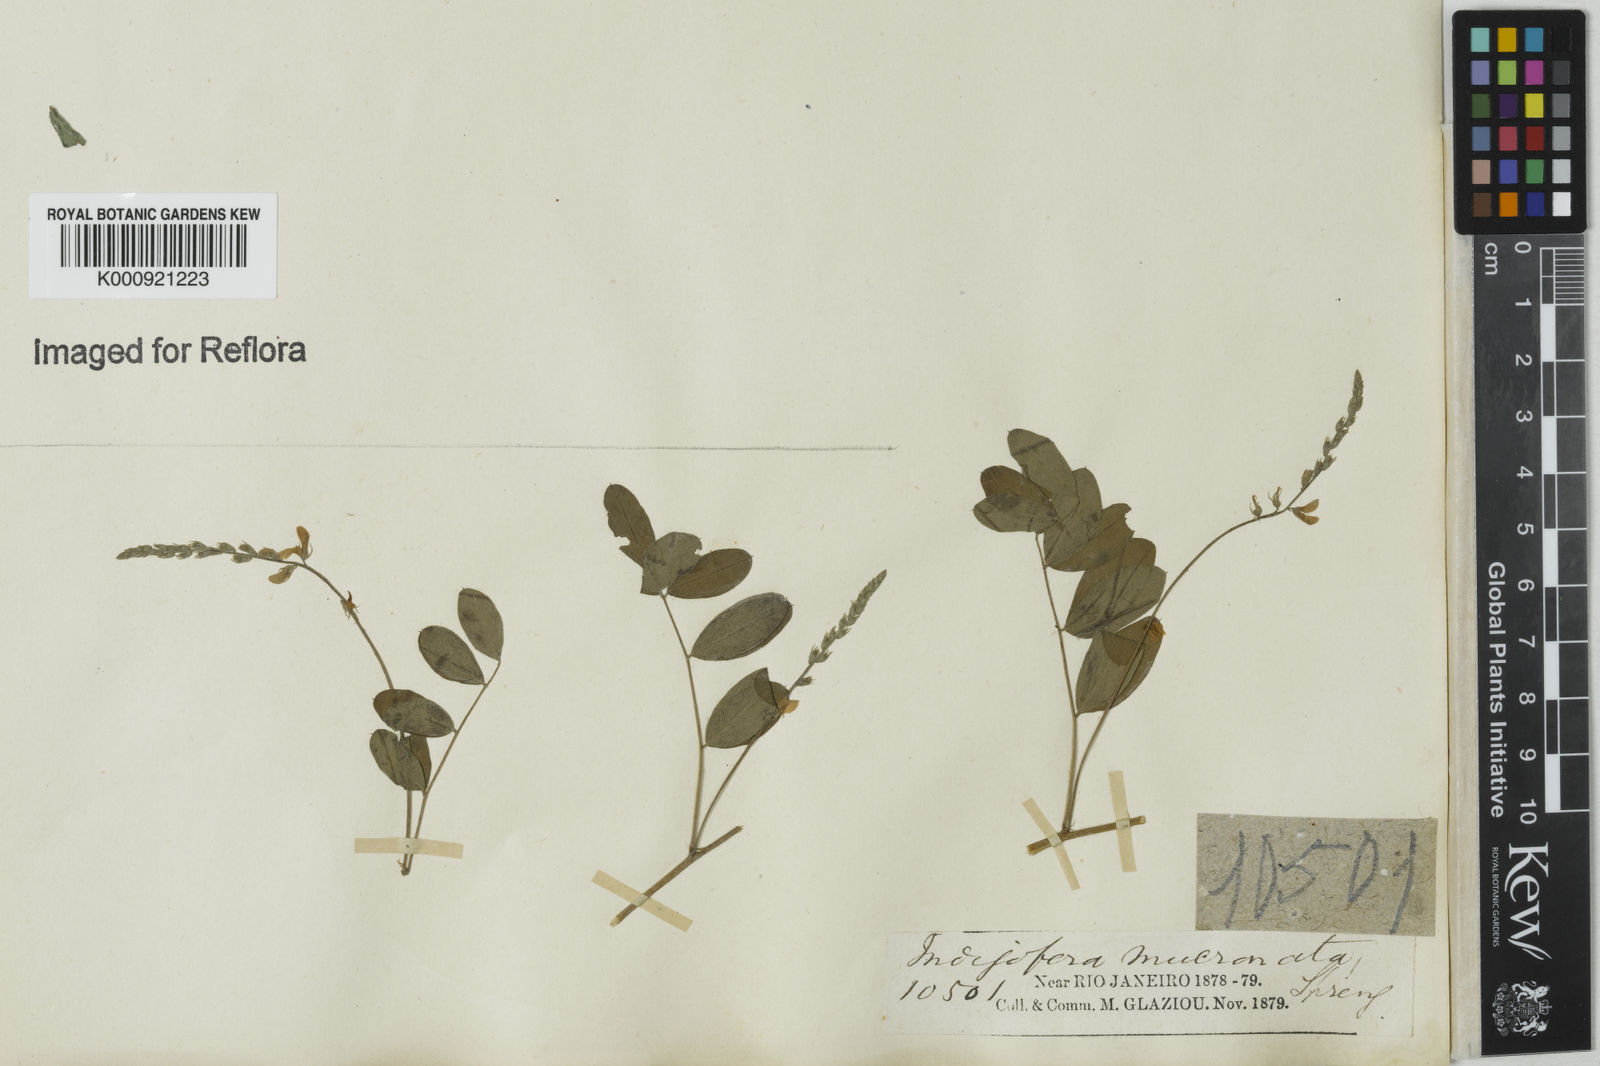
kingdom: Plantae
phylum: Tracheophyta
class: Magnoliopsida
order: Fabales
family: Fabaceae
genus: Indigofera
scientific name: Indigofera
